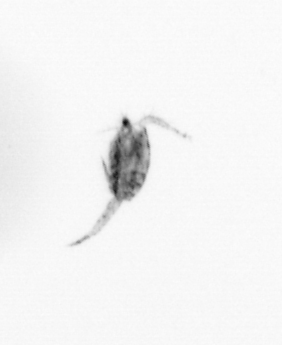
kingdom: Animalia
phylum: Arthropoda
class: Copepoda
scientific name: Copepoda
